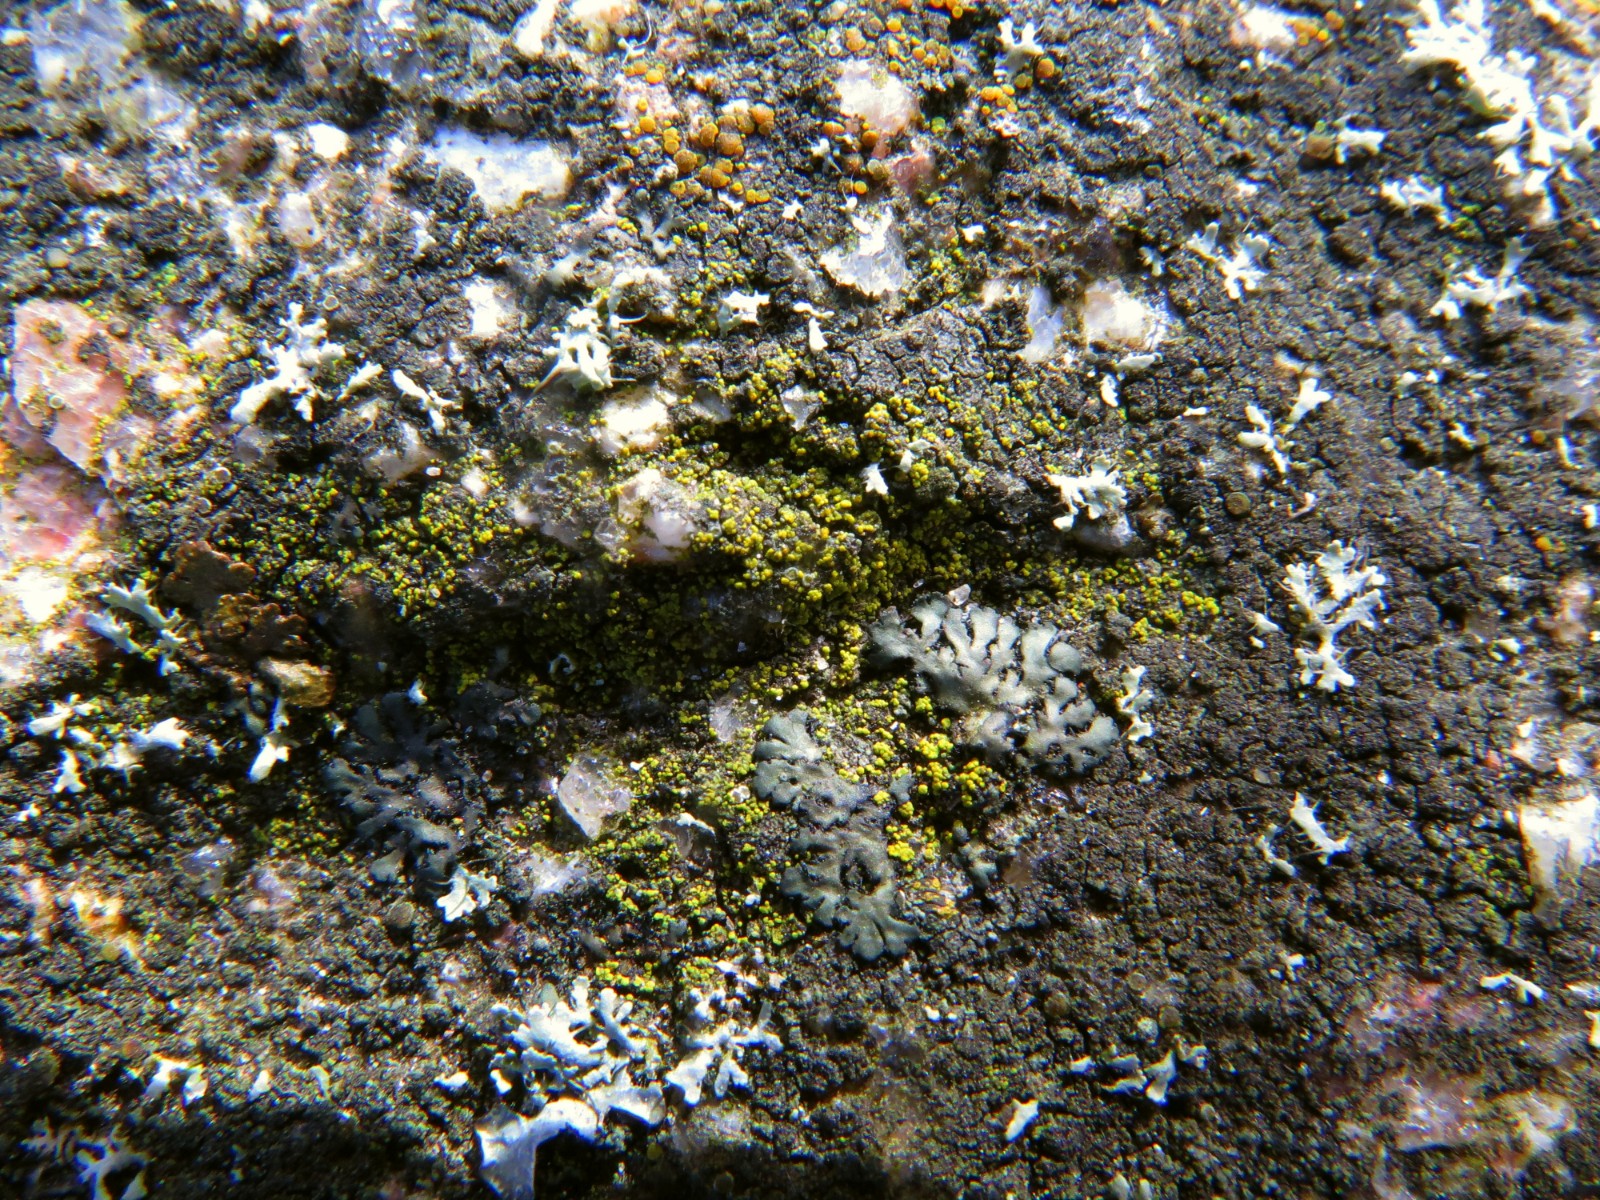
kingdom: Fungi
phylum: Ascomycota
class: Candelariomycetes
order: Candelariales
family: Candelariaceae
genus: Candelariella
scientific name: Candelariella vitellina
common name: almindelig æggeblommelav
